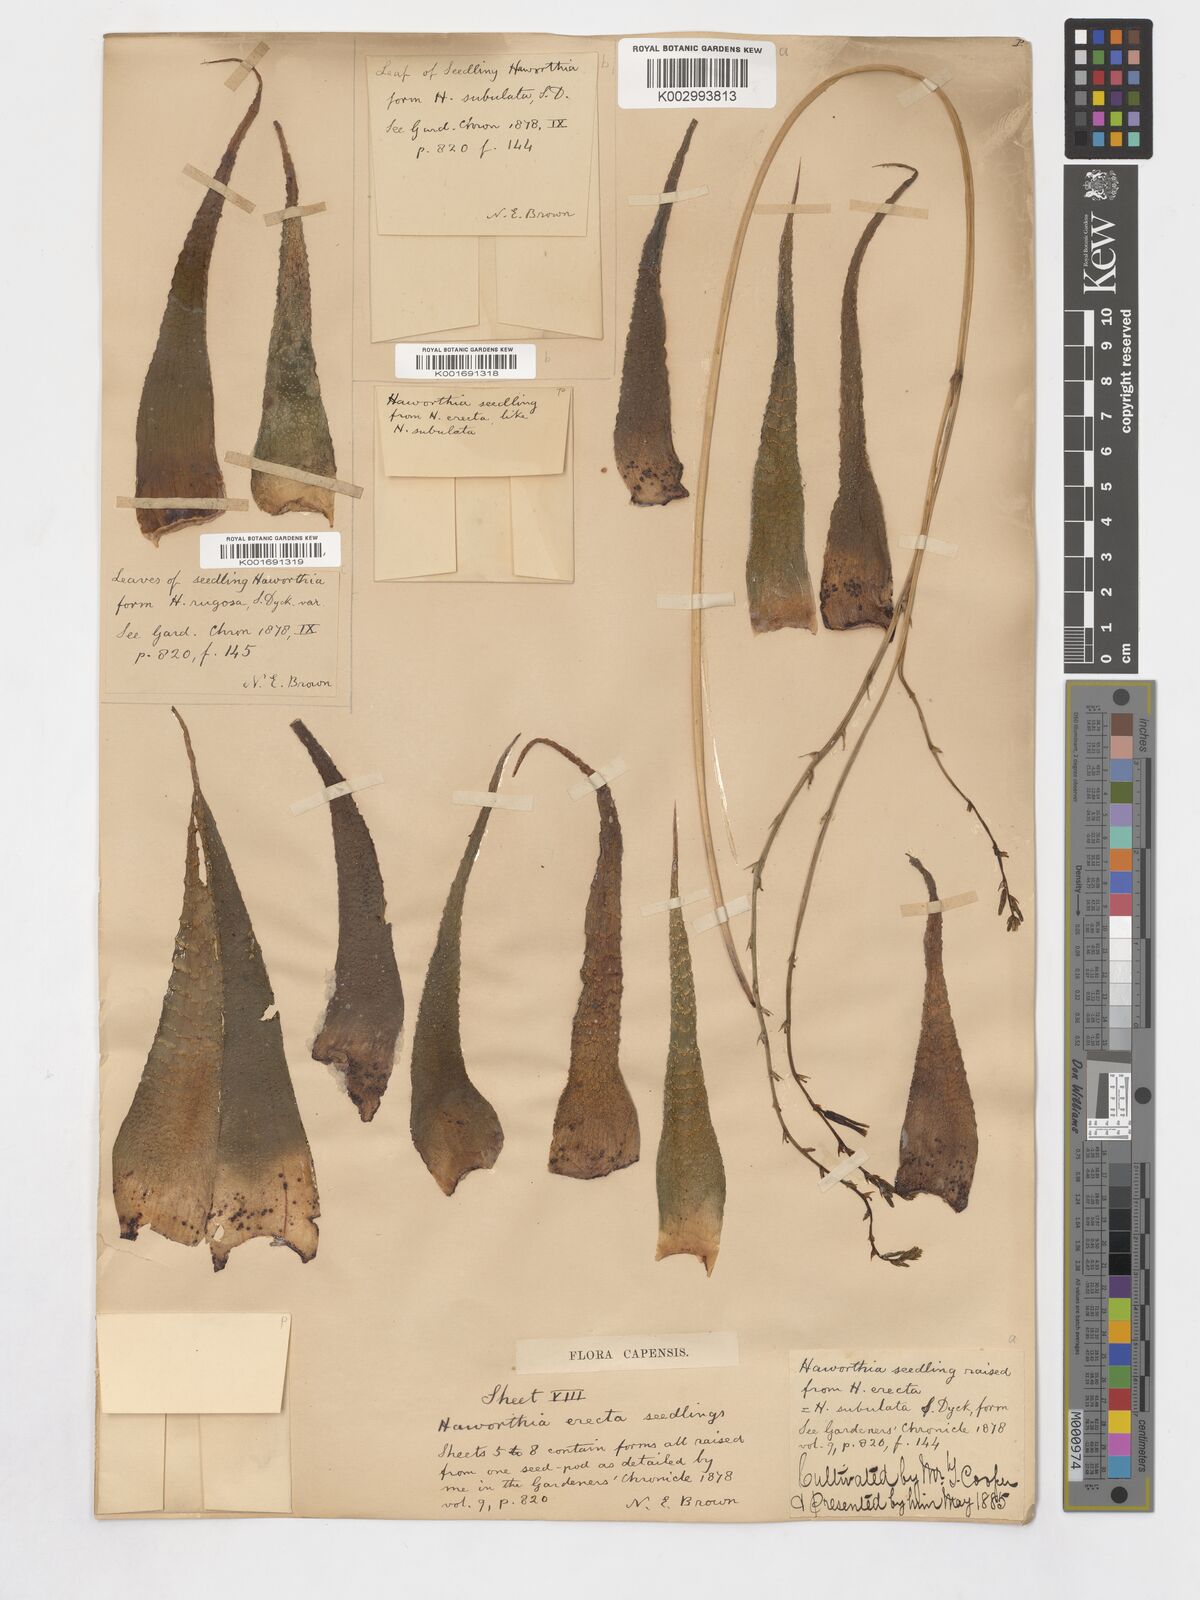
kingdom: Plantae
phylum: Tracheophyta
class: Liliopsida
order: Asparagales
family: Asphodelaceae
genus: Haworthiopsis
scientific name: Haworthiopsis attenuata
